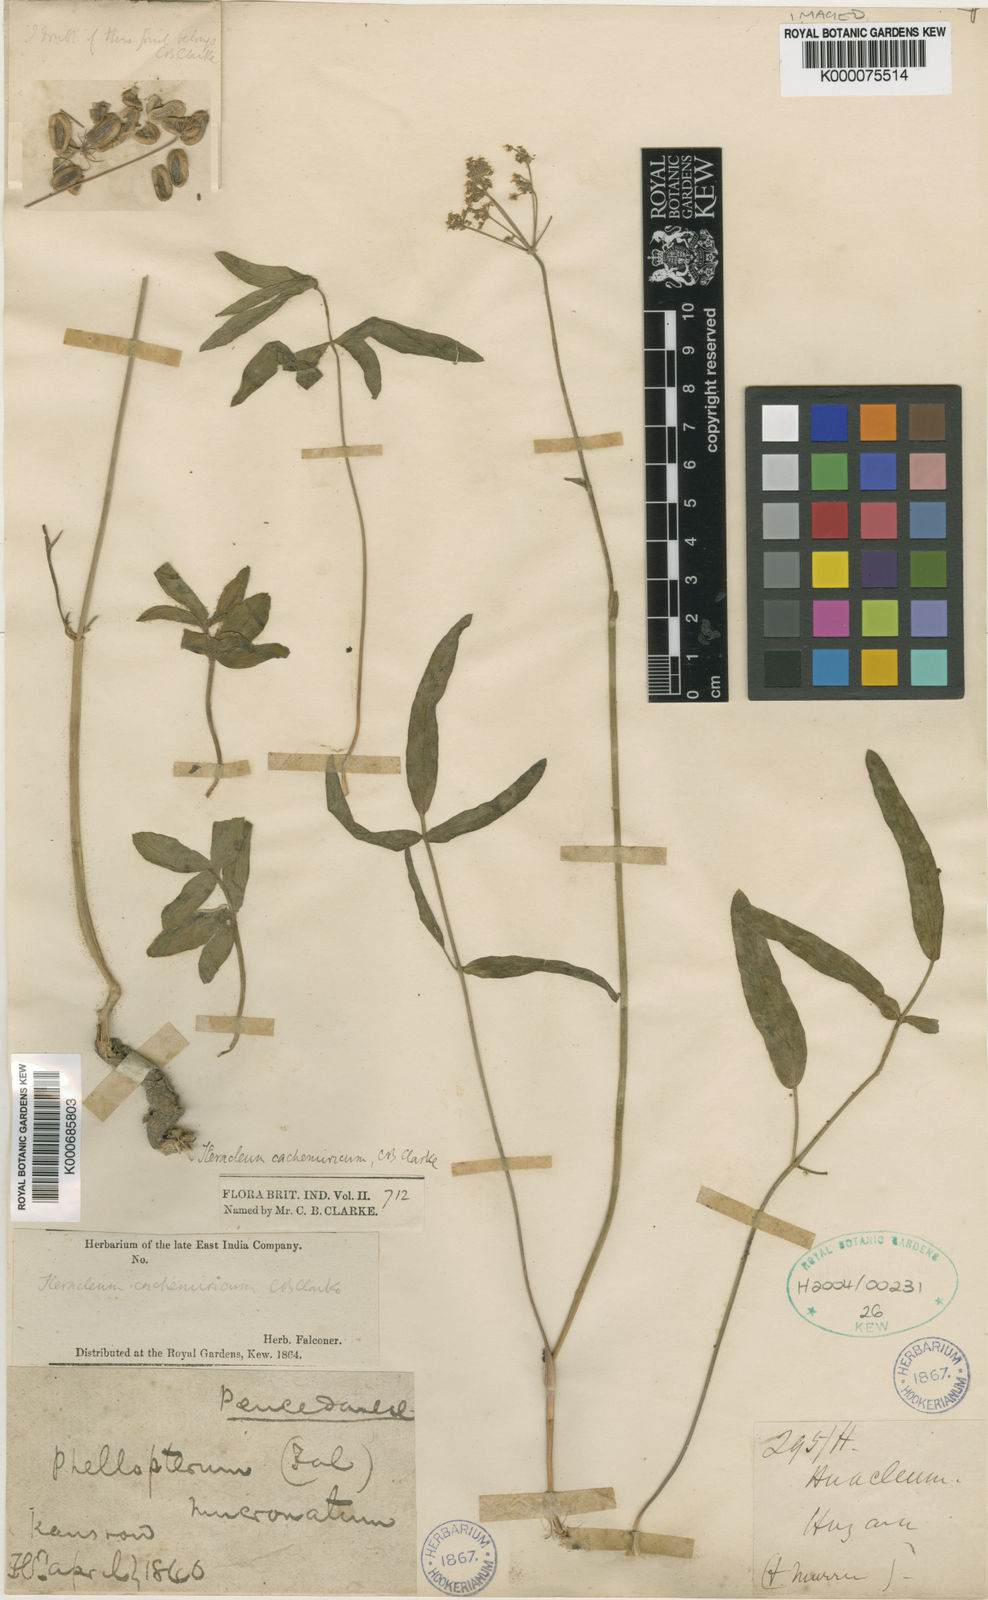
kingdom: Plantae
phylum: Tracheophyta
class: Magnoliopsida
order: Apiales
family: Apiaceae
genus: Tricholaser
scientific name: Tricholaser cachemiricum
